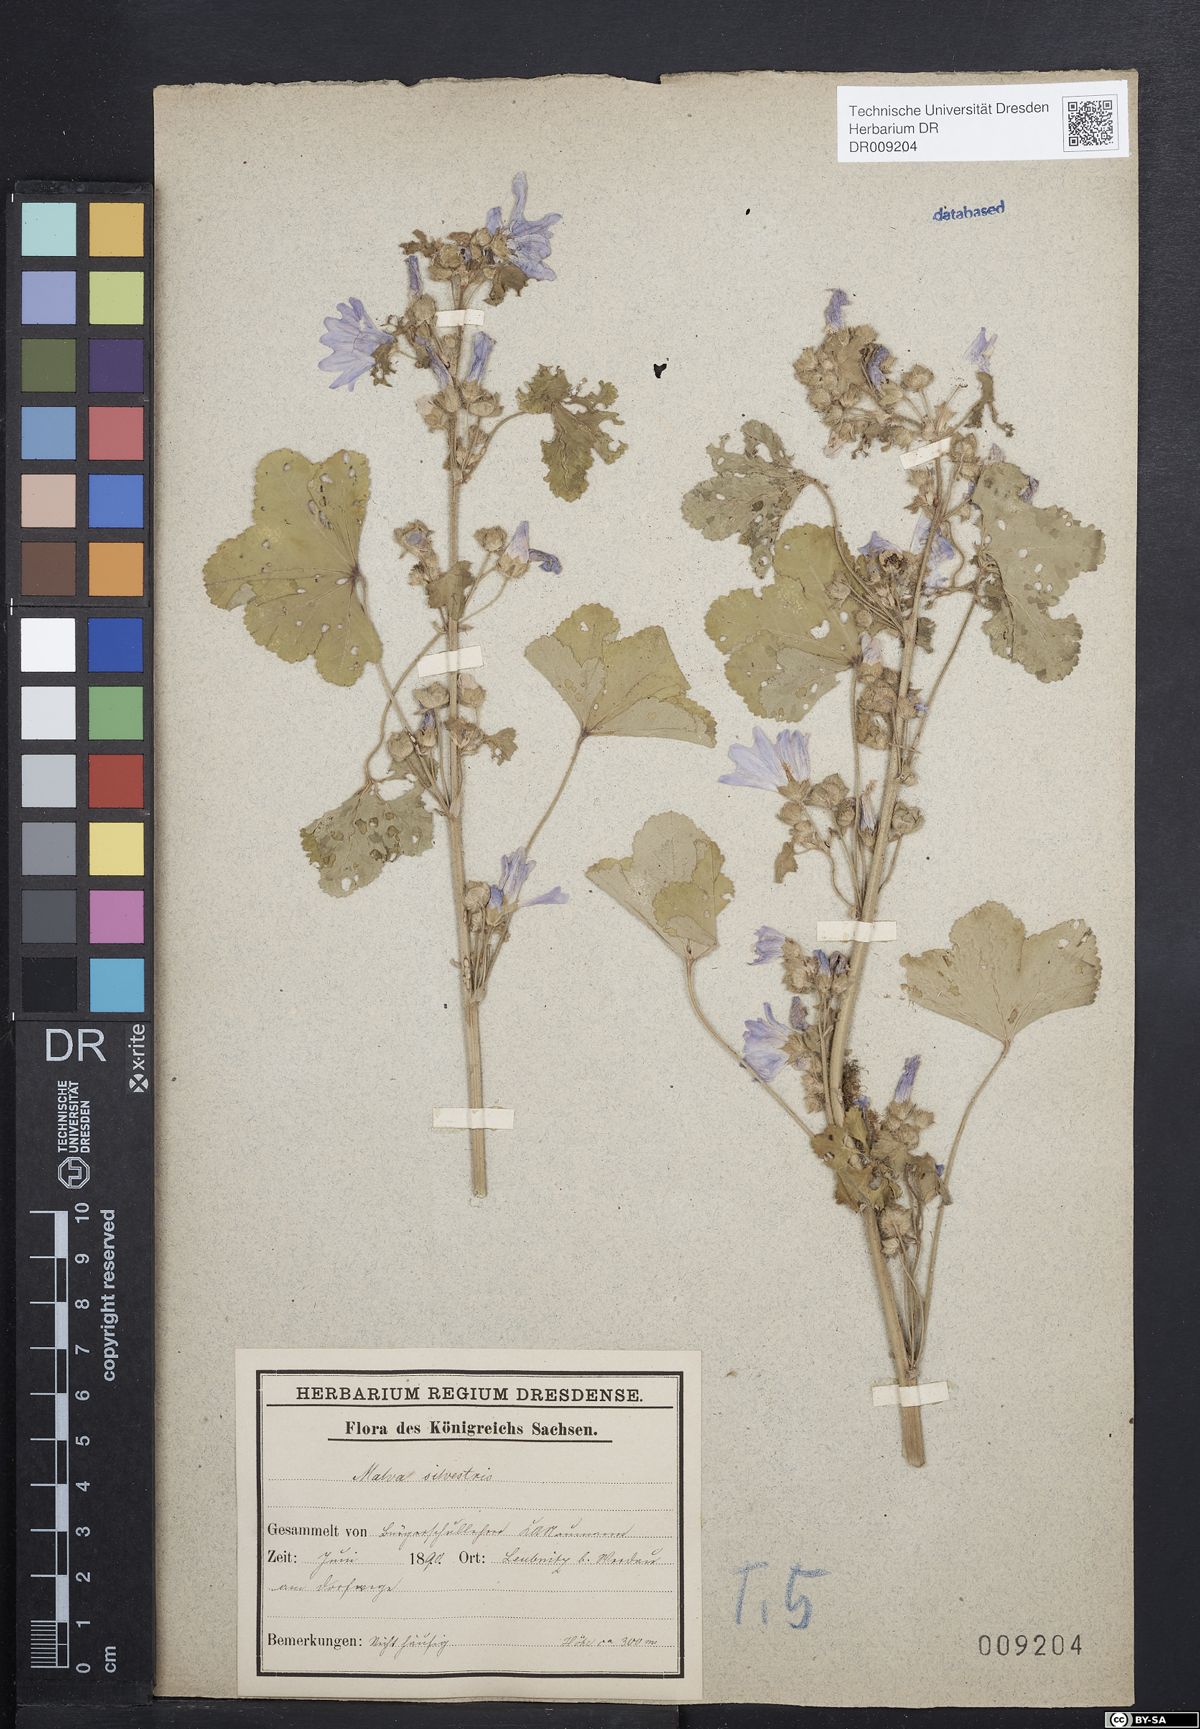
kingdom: Plantae
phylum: Tracheophyta
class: Magnoliopsida
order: Malvales
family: Malvaceae
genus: Malva
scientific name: Malva sylvestris
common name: Common mallow
